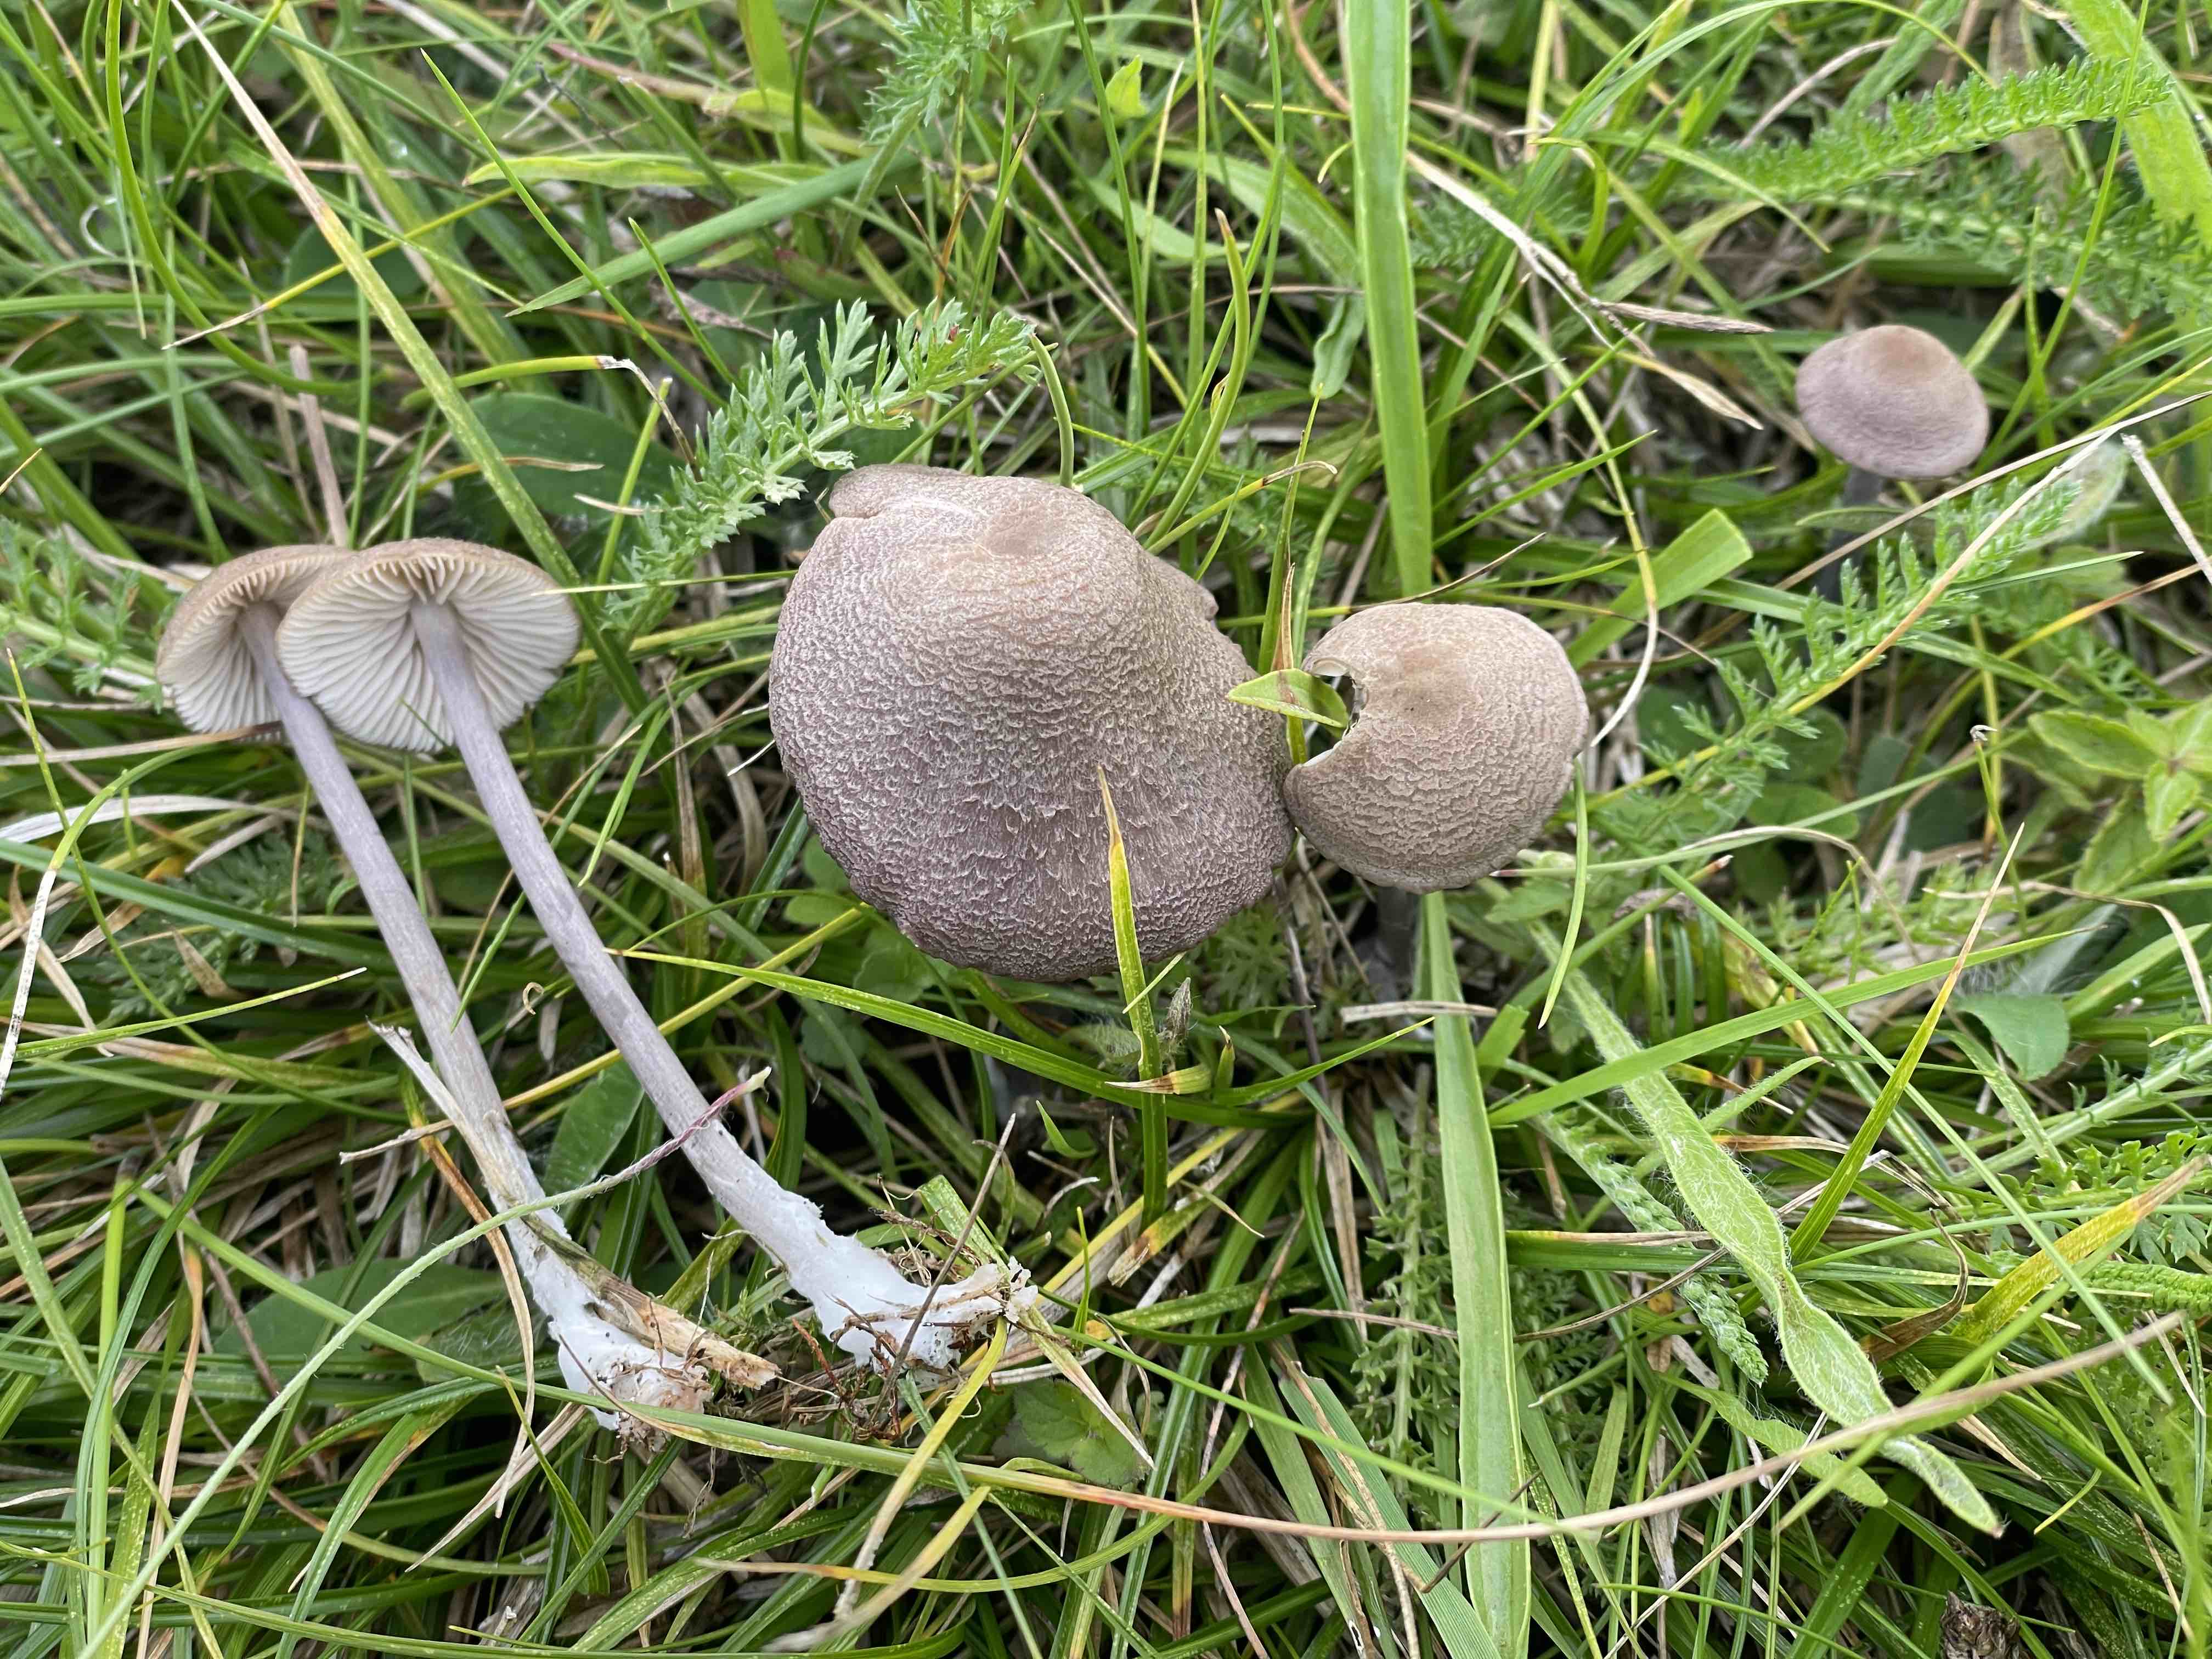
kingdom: Fungi
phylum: Basidiomycota
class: Agaricomycetes
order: Agaricales
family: Entolomataceae
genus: Entoloma
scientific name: Entoloma griseocyaneum
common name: gråblå rødblad
